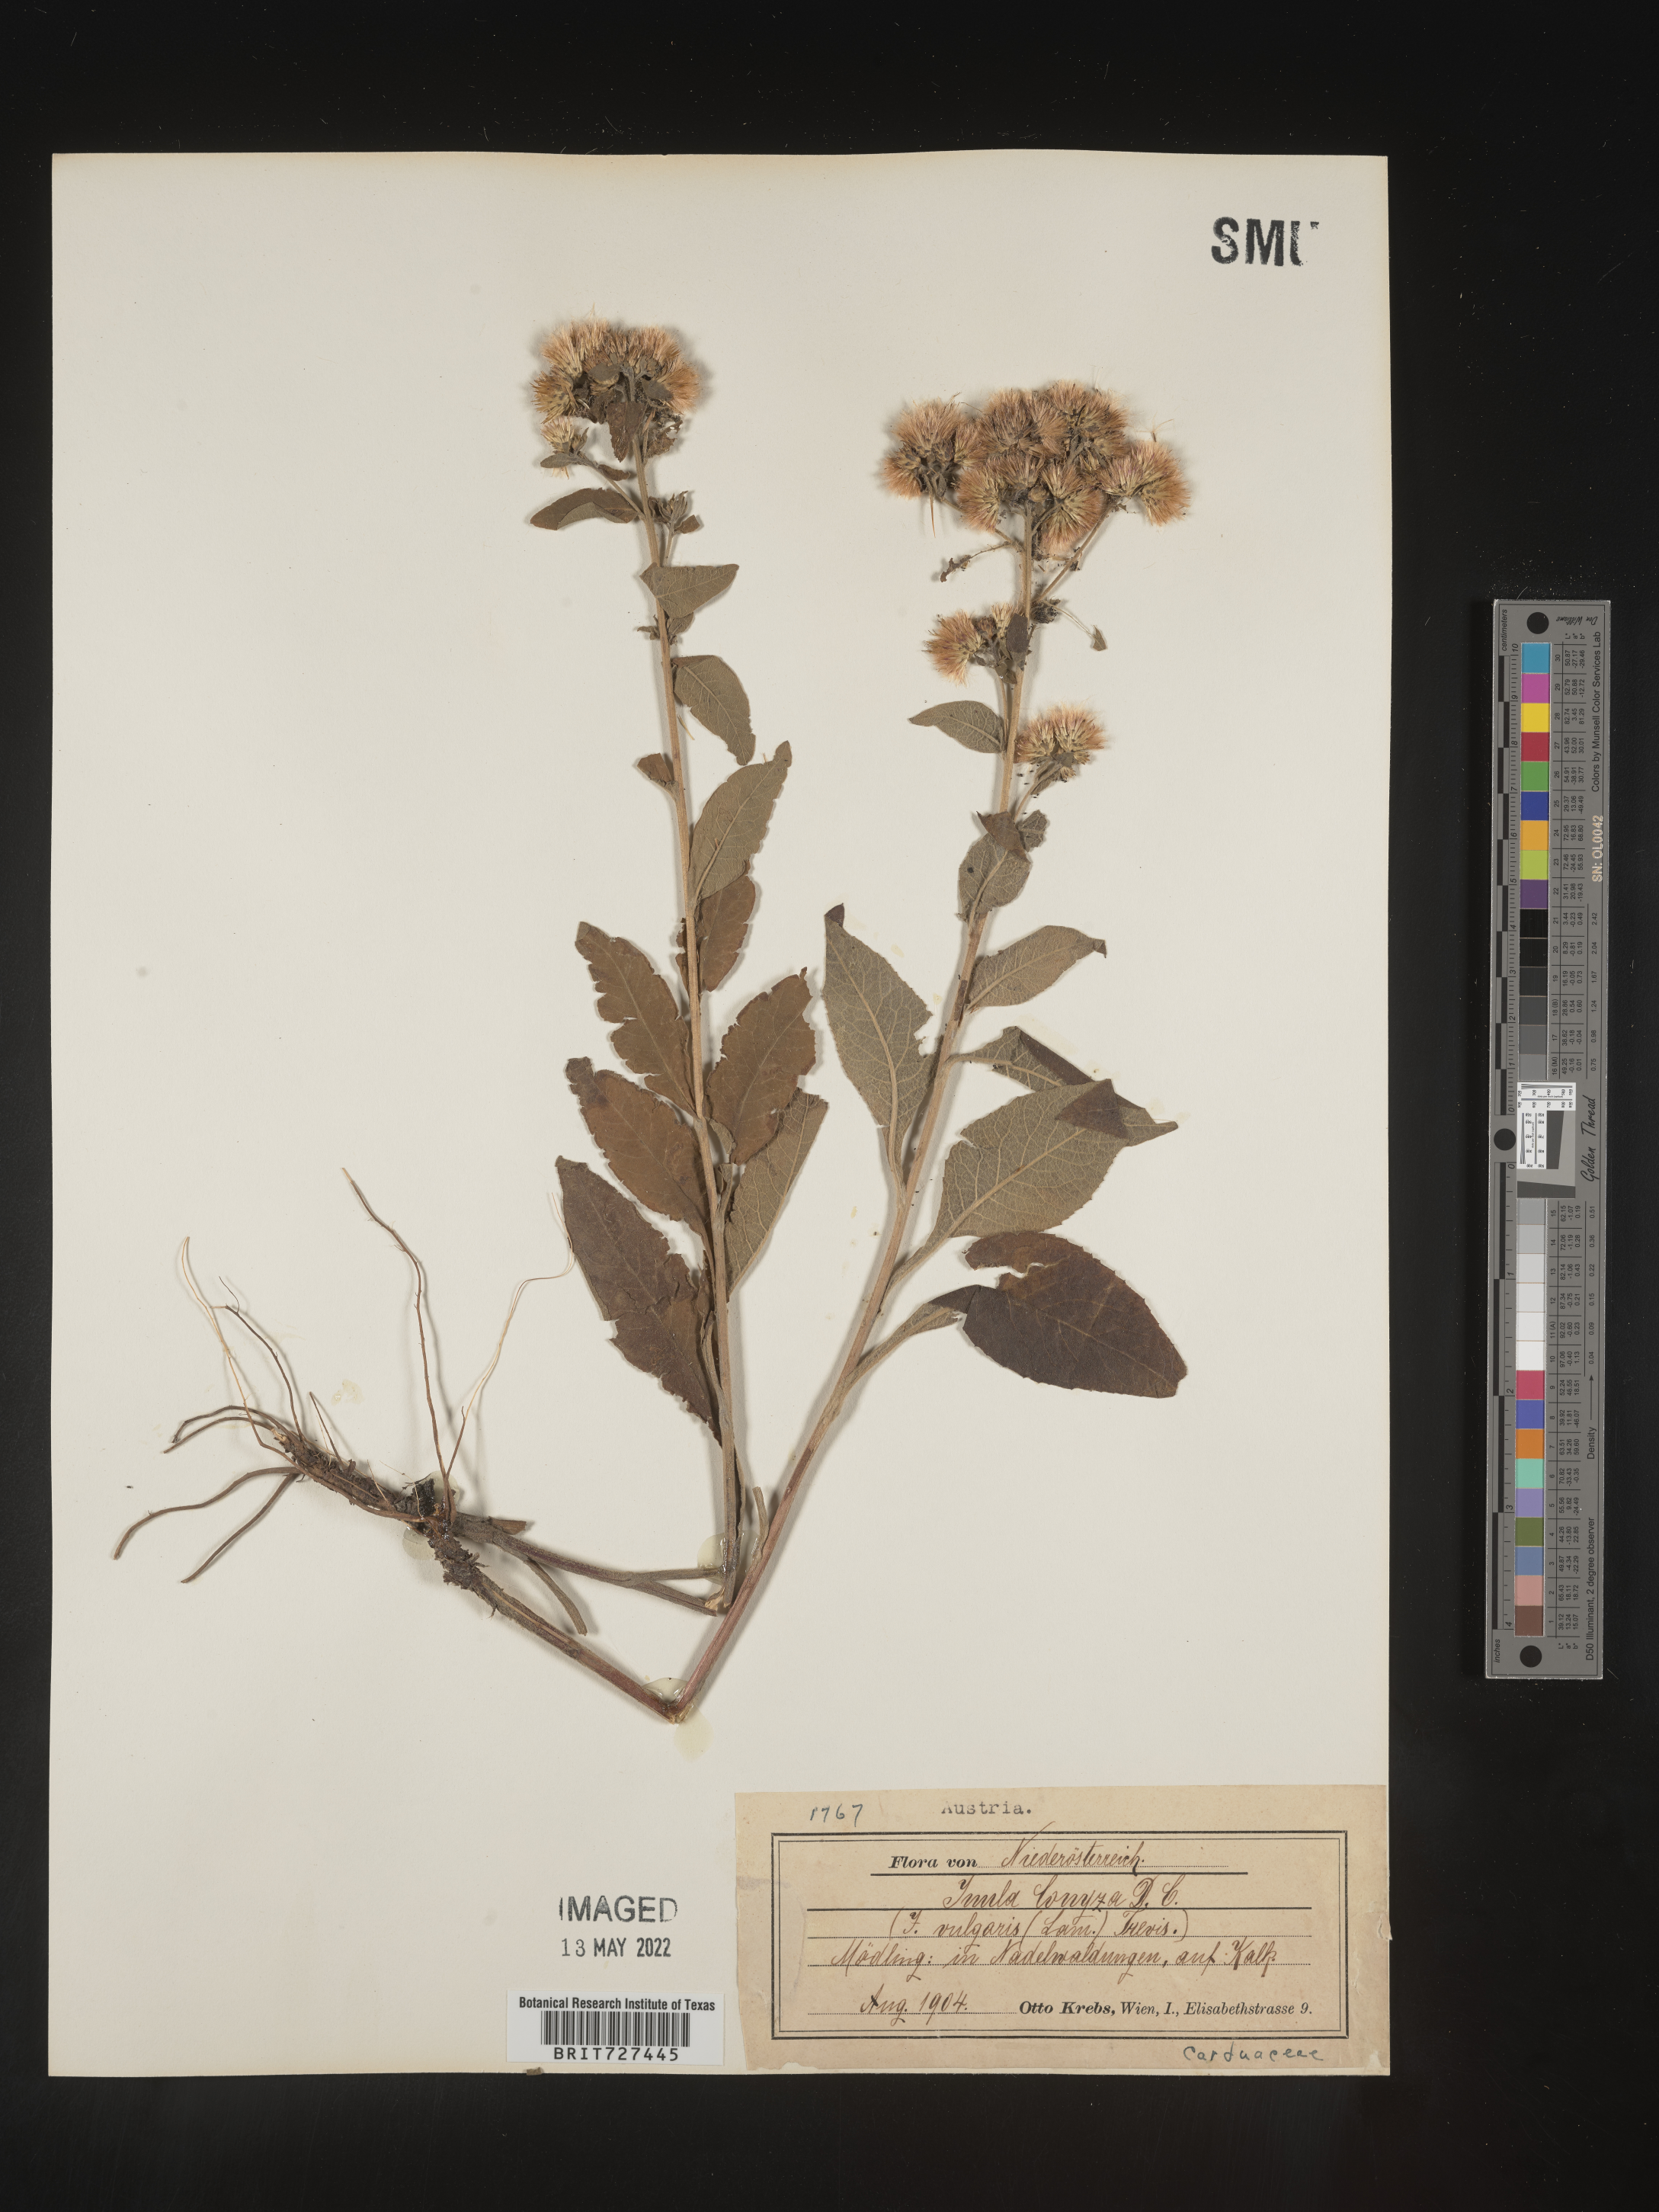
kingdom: Plantae
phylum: Tracheophyta
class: Magnoliopsida
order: Asterales
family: Asteraceae
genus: Inula
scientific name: Inula
